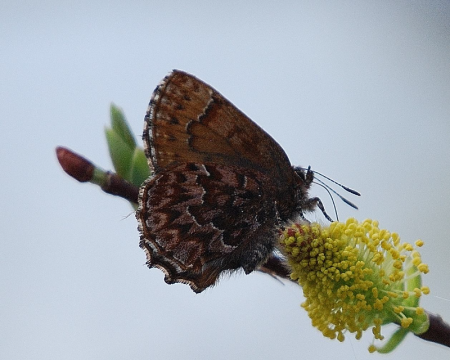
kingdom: Animalia
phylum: Arthropoda
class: Insecta
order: Lepidoptera
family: Lycaenidae
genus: Incisalia
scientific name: Incisalia eryphon
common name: Western Pine Elfin
